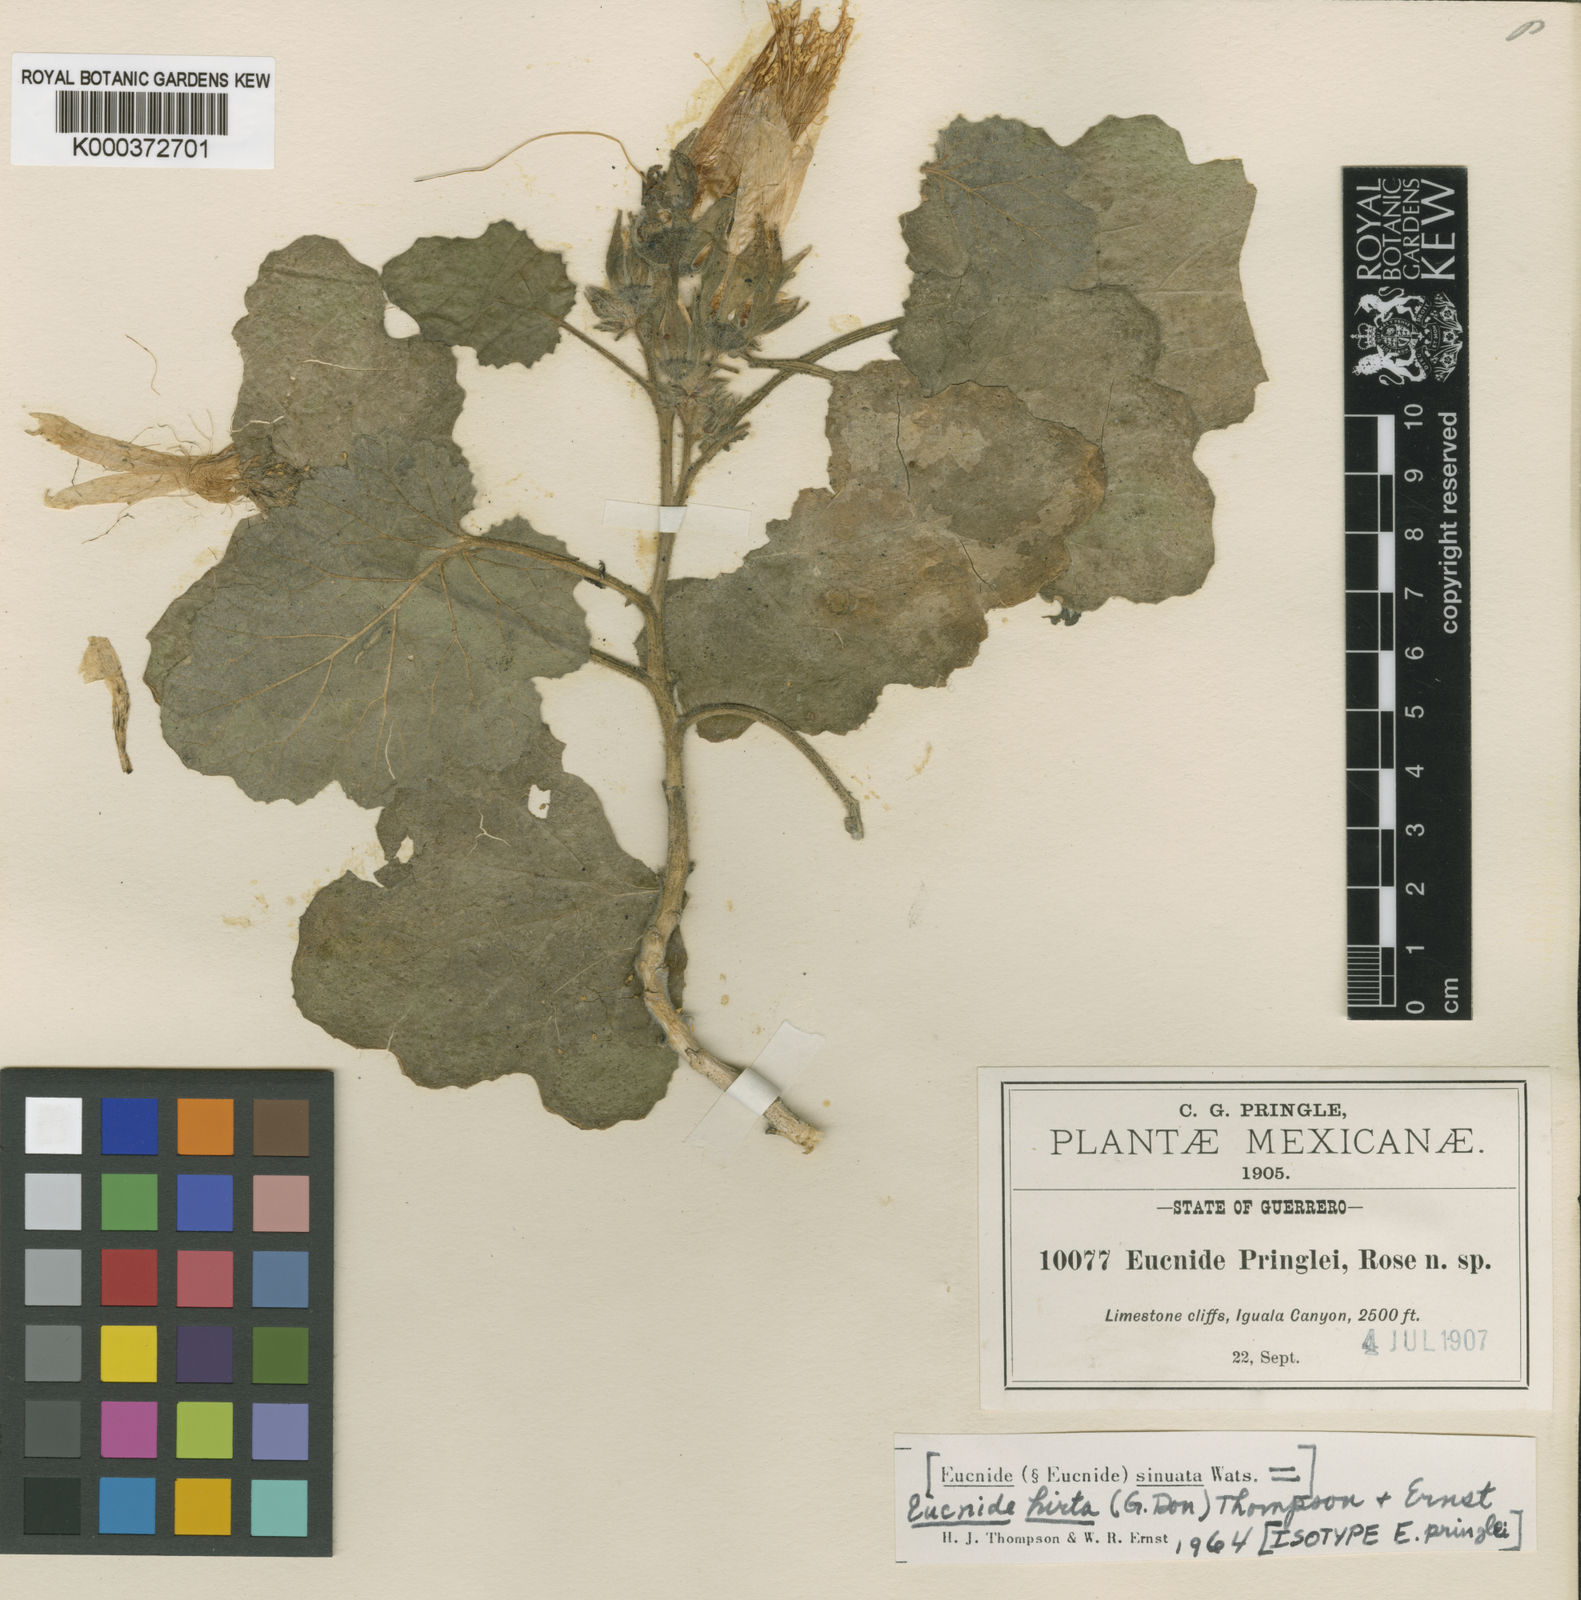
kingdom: Plantae
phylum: Tracheophyta
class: Magnoliopsida
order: Cornales
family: Loasaceae
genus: Eucnide
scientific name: Eucnide hirta
